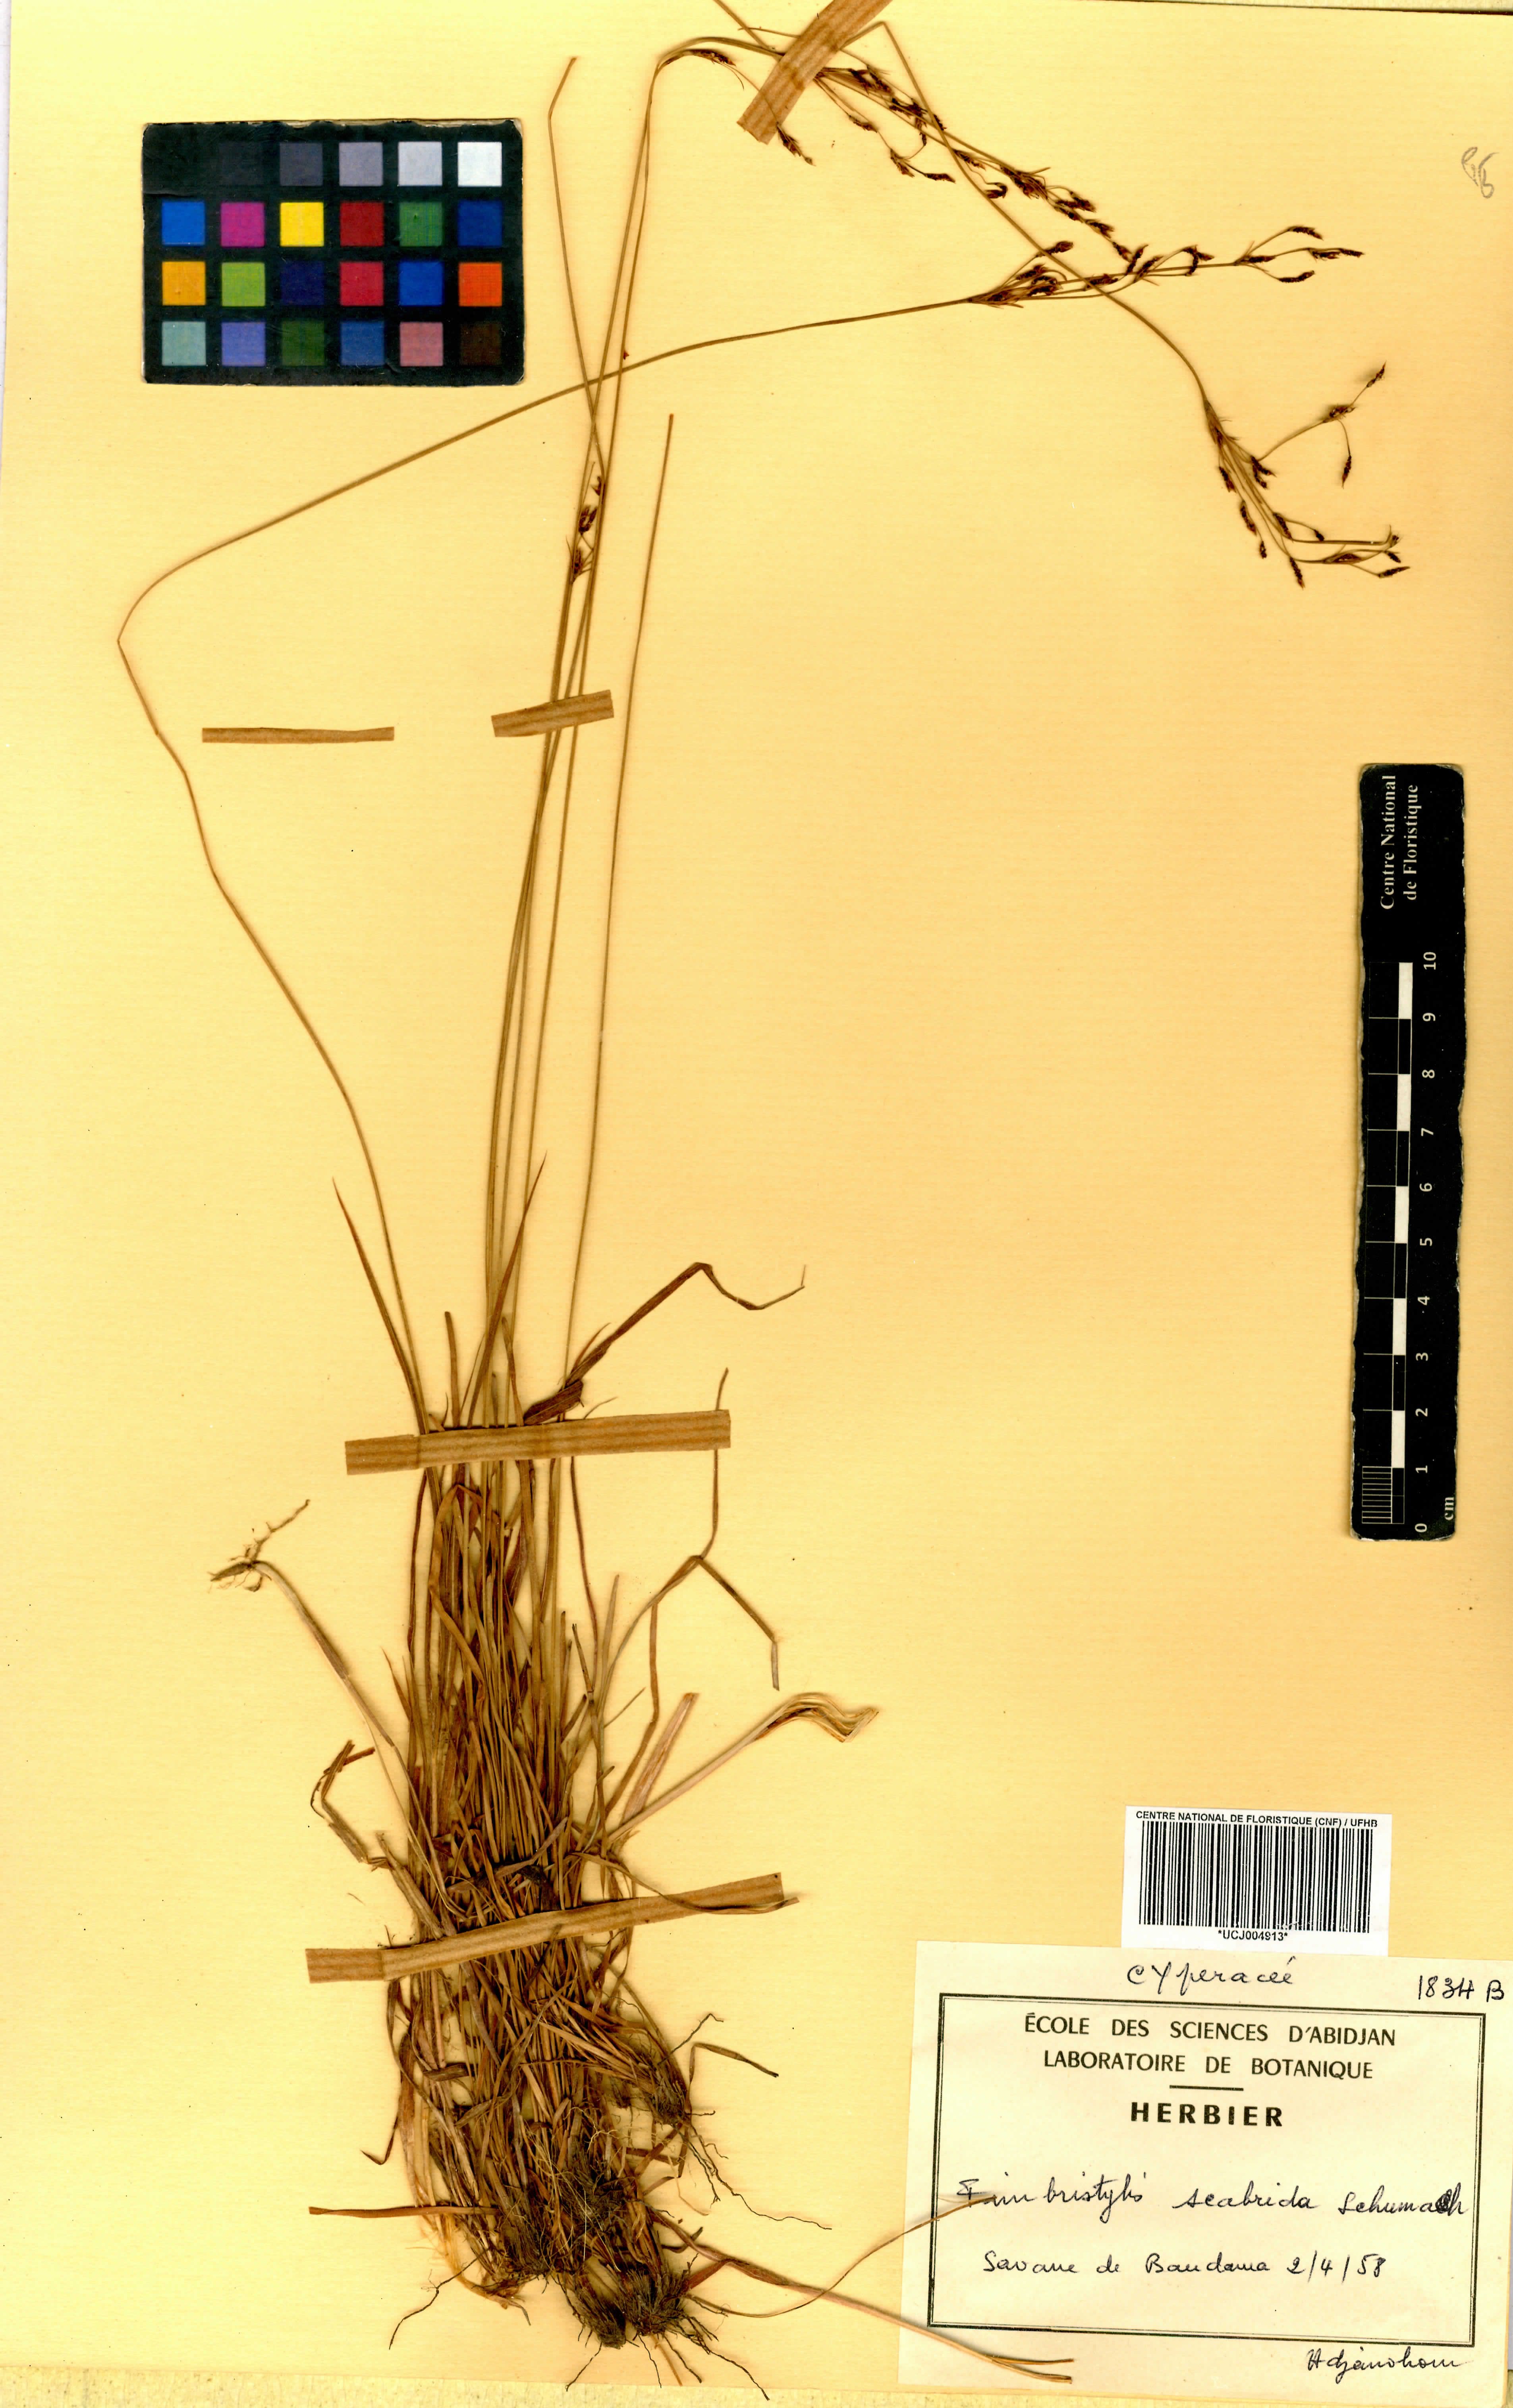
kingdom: Plantae
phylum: Tracheophyta
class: Liliopsida
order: Poales
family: Cyperaceae
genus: Fimbristylis
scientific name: Fimbristylis scabrida
